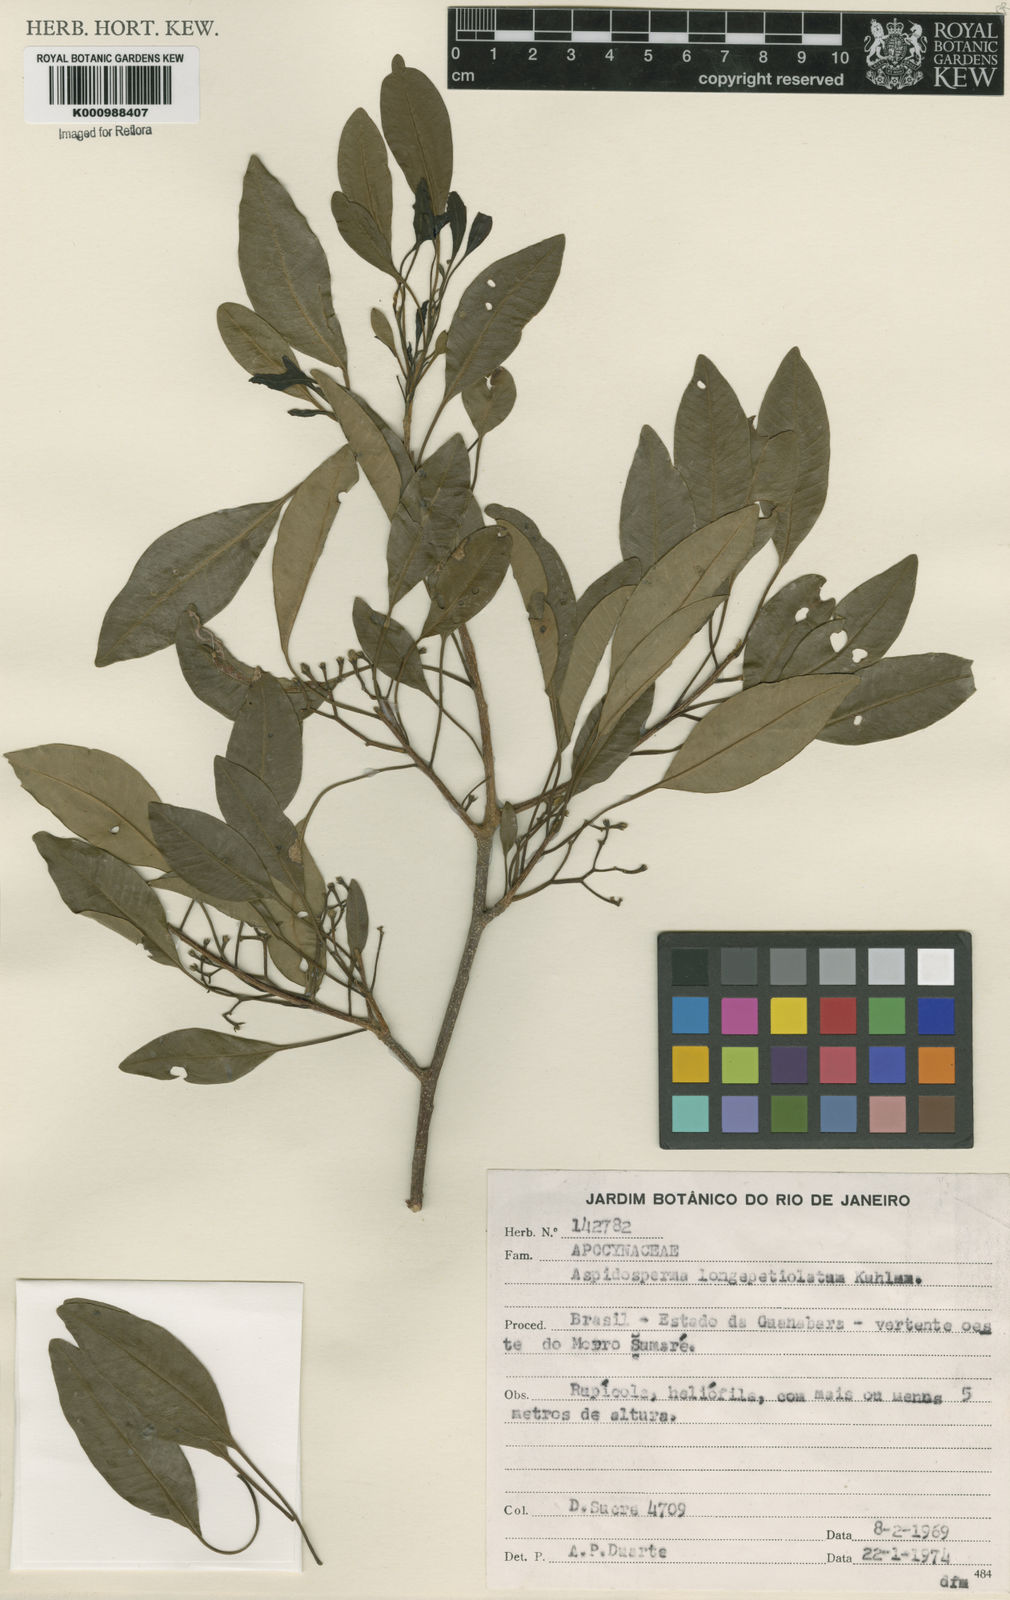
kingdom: Plantae
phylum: Tracheophyta
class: Magnoliopsida
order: Gentianales
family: Apocynaceae
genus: Aspidosperma
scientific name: Aspidosperma
